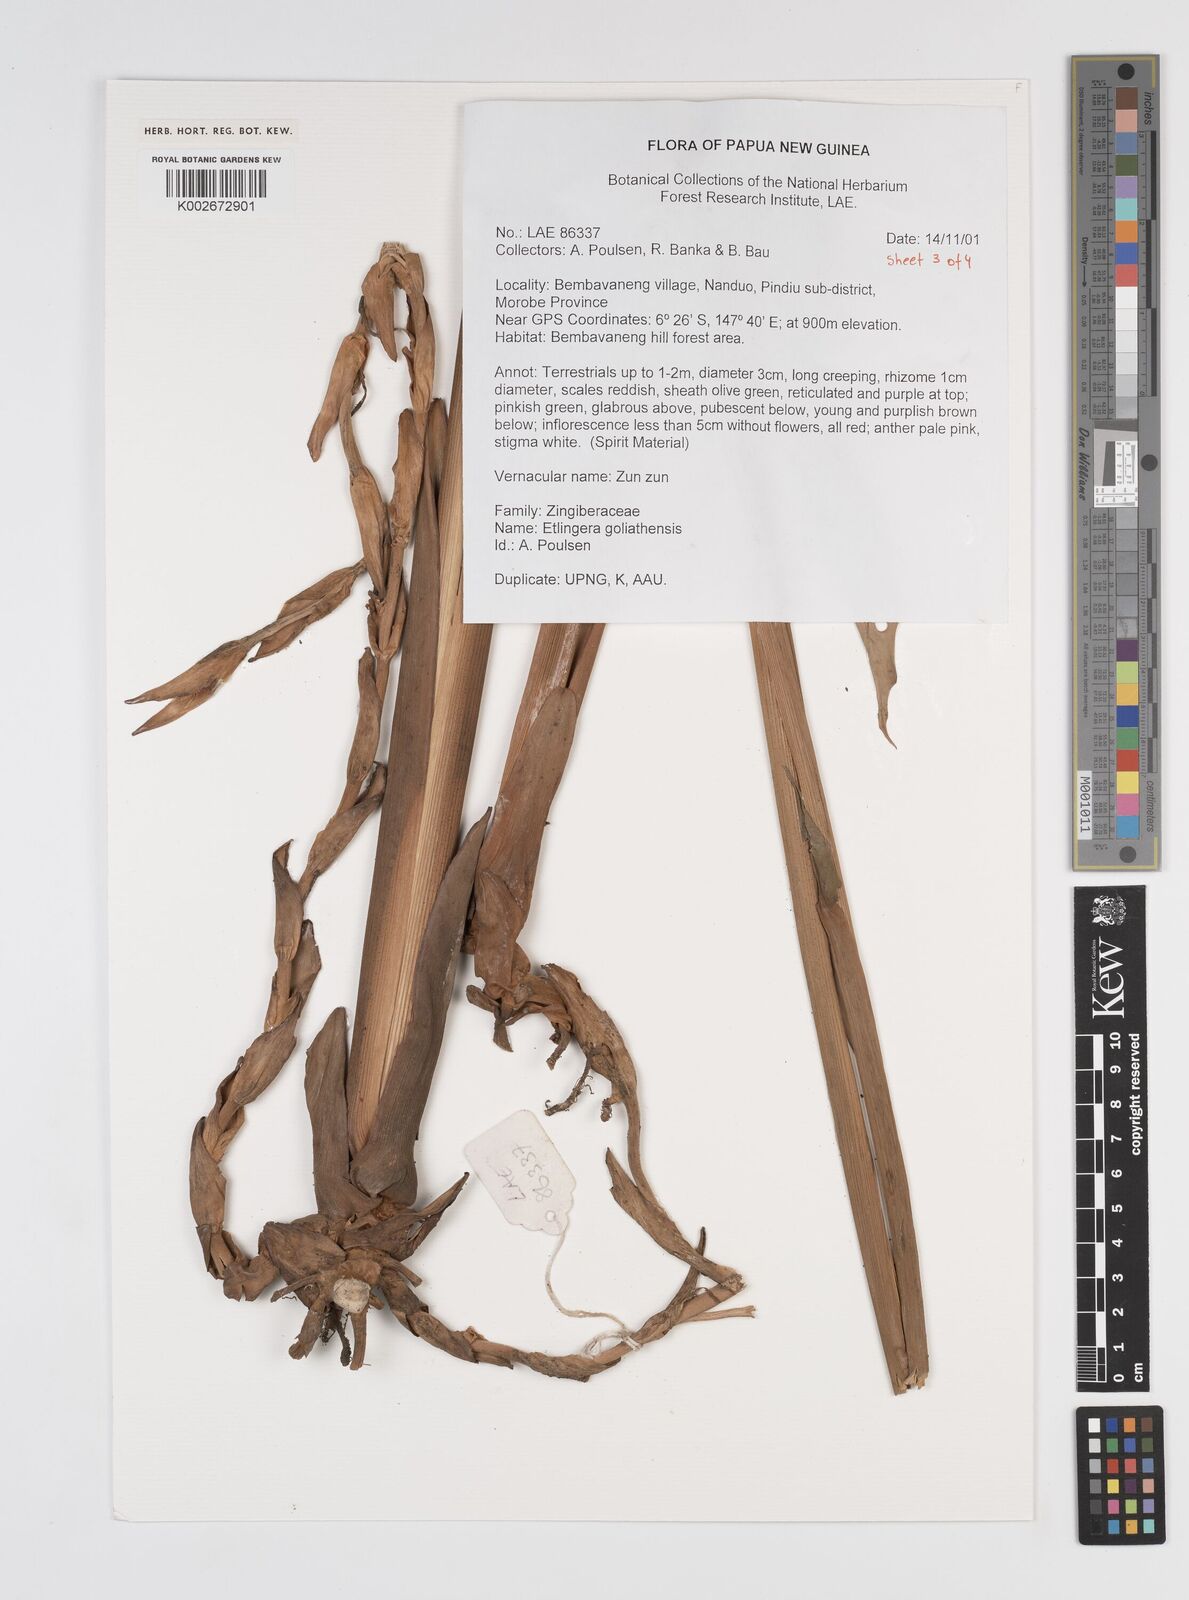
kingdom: Plantae
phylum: Tracheophyta
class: Liliopsida
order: Zingiberales
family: Zingiberaceae
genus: Etlingera
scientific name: Etlingera goliathensis
